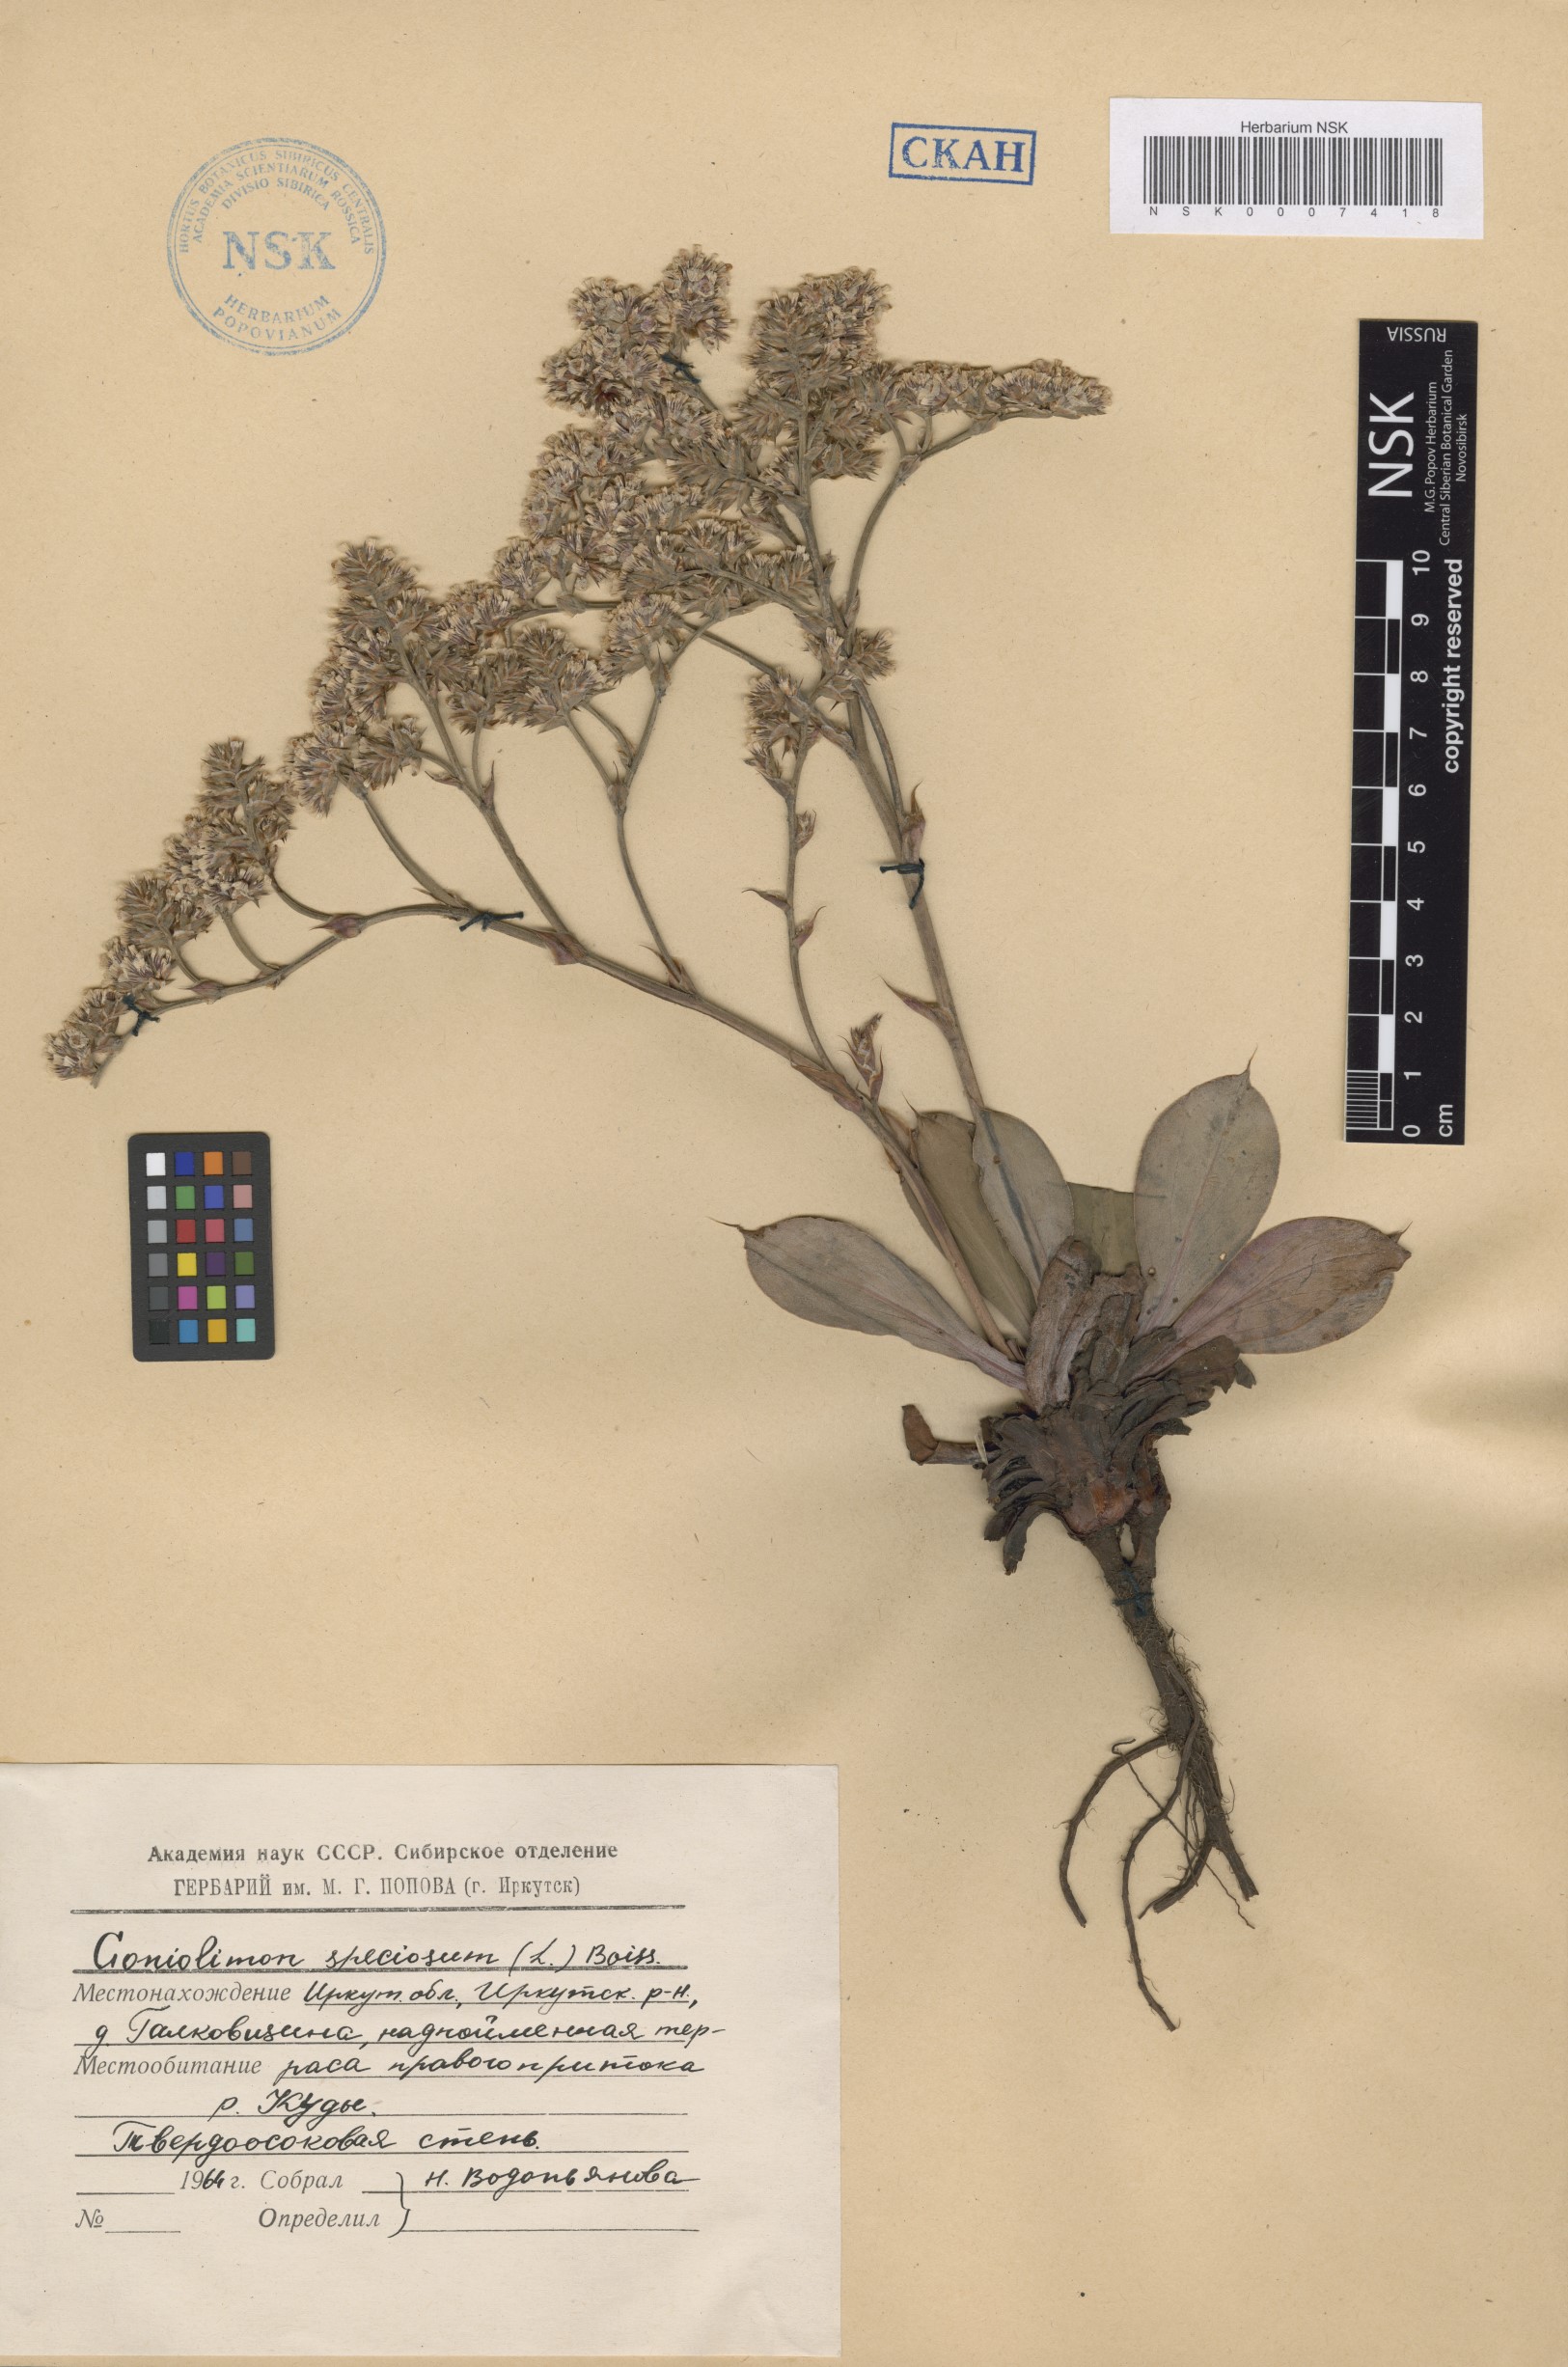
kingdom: Plantae
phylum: Tracheophyta
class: Magnoliopsida
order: Caryophyllales
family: Plumbaginaceae
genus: Goniolimon
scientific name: Goniolimon speciosum
